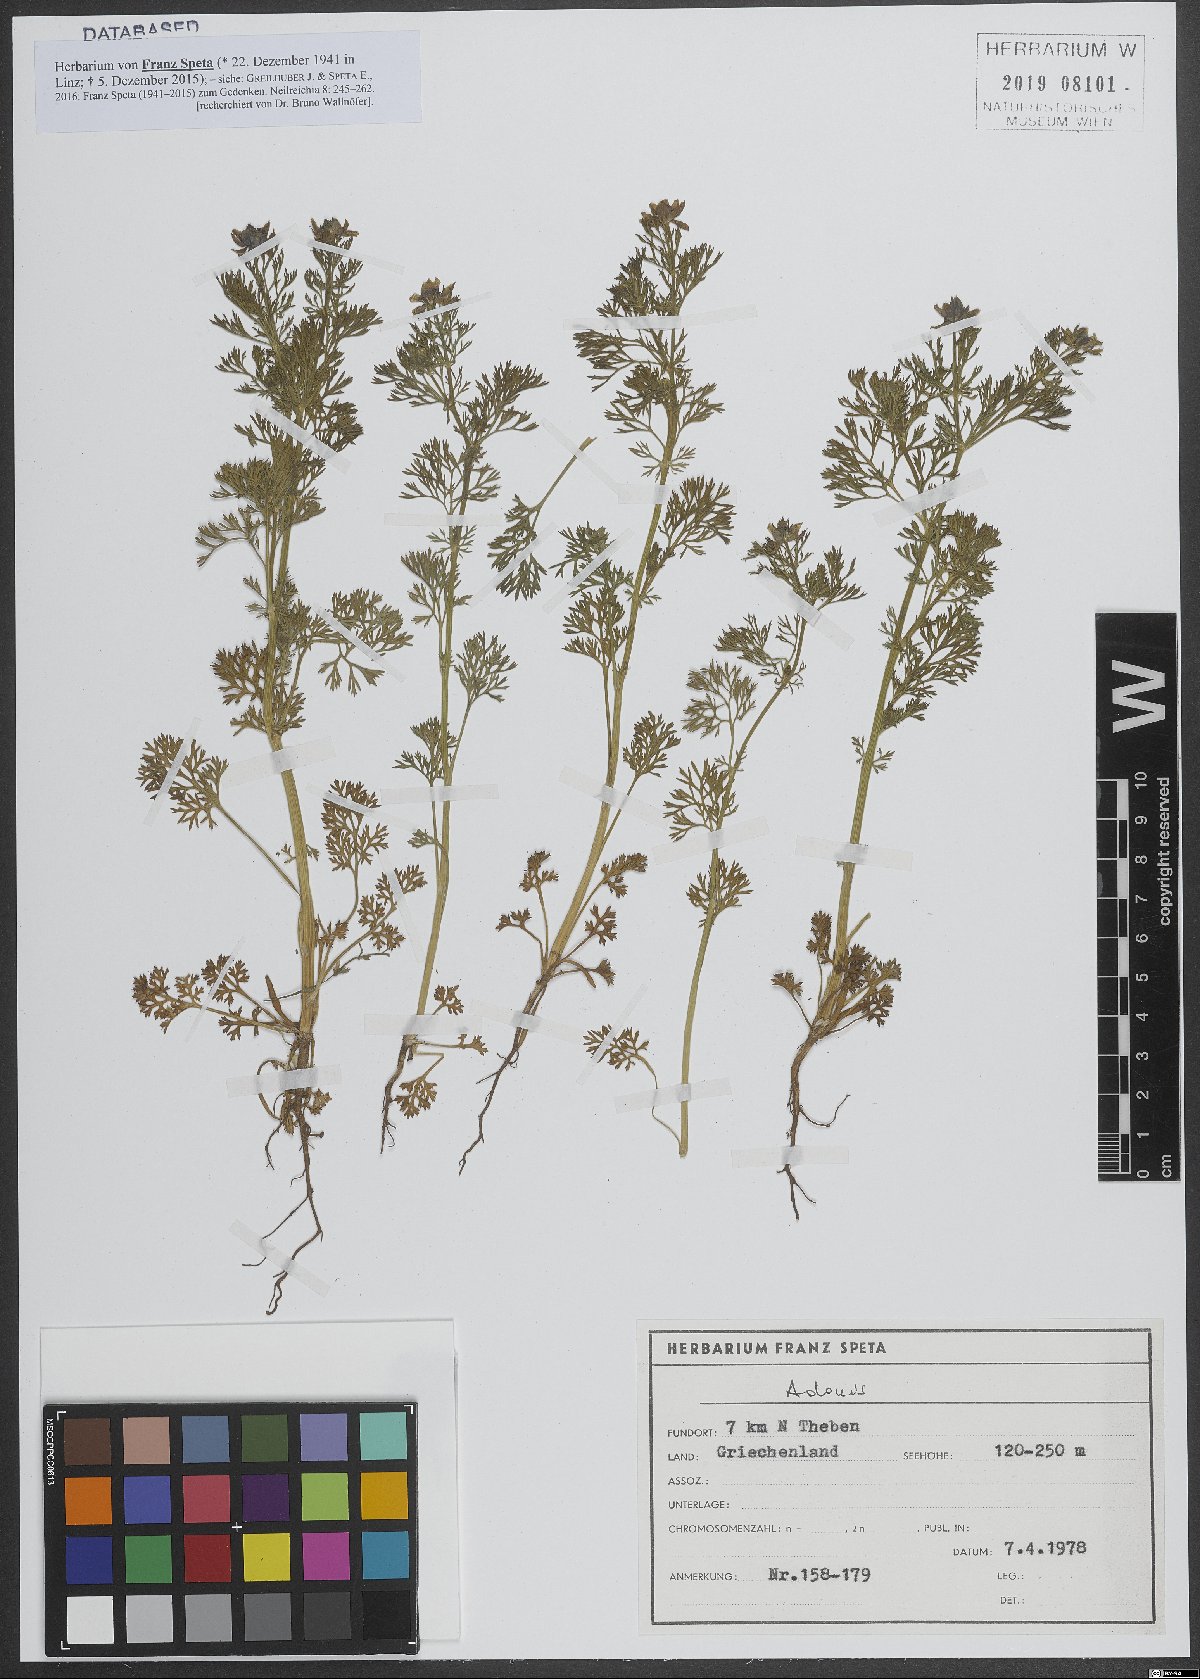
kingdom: Plantae
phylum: Tracheophyta
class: Magnoliopsida
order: Ranunculales
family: Ranunculaceae
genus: Adonis
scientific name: Adonis
